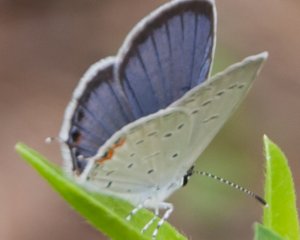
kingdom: Animalia
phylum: Arthropoda
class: Insecta
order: Lepidoptera
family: Lycaenidae
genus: Elkalyce
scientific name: Elkalyce comyntas
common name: Eastern Tailed-Blue
